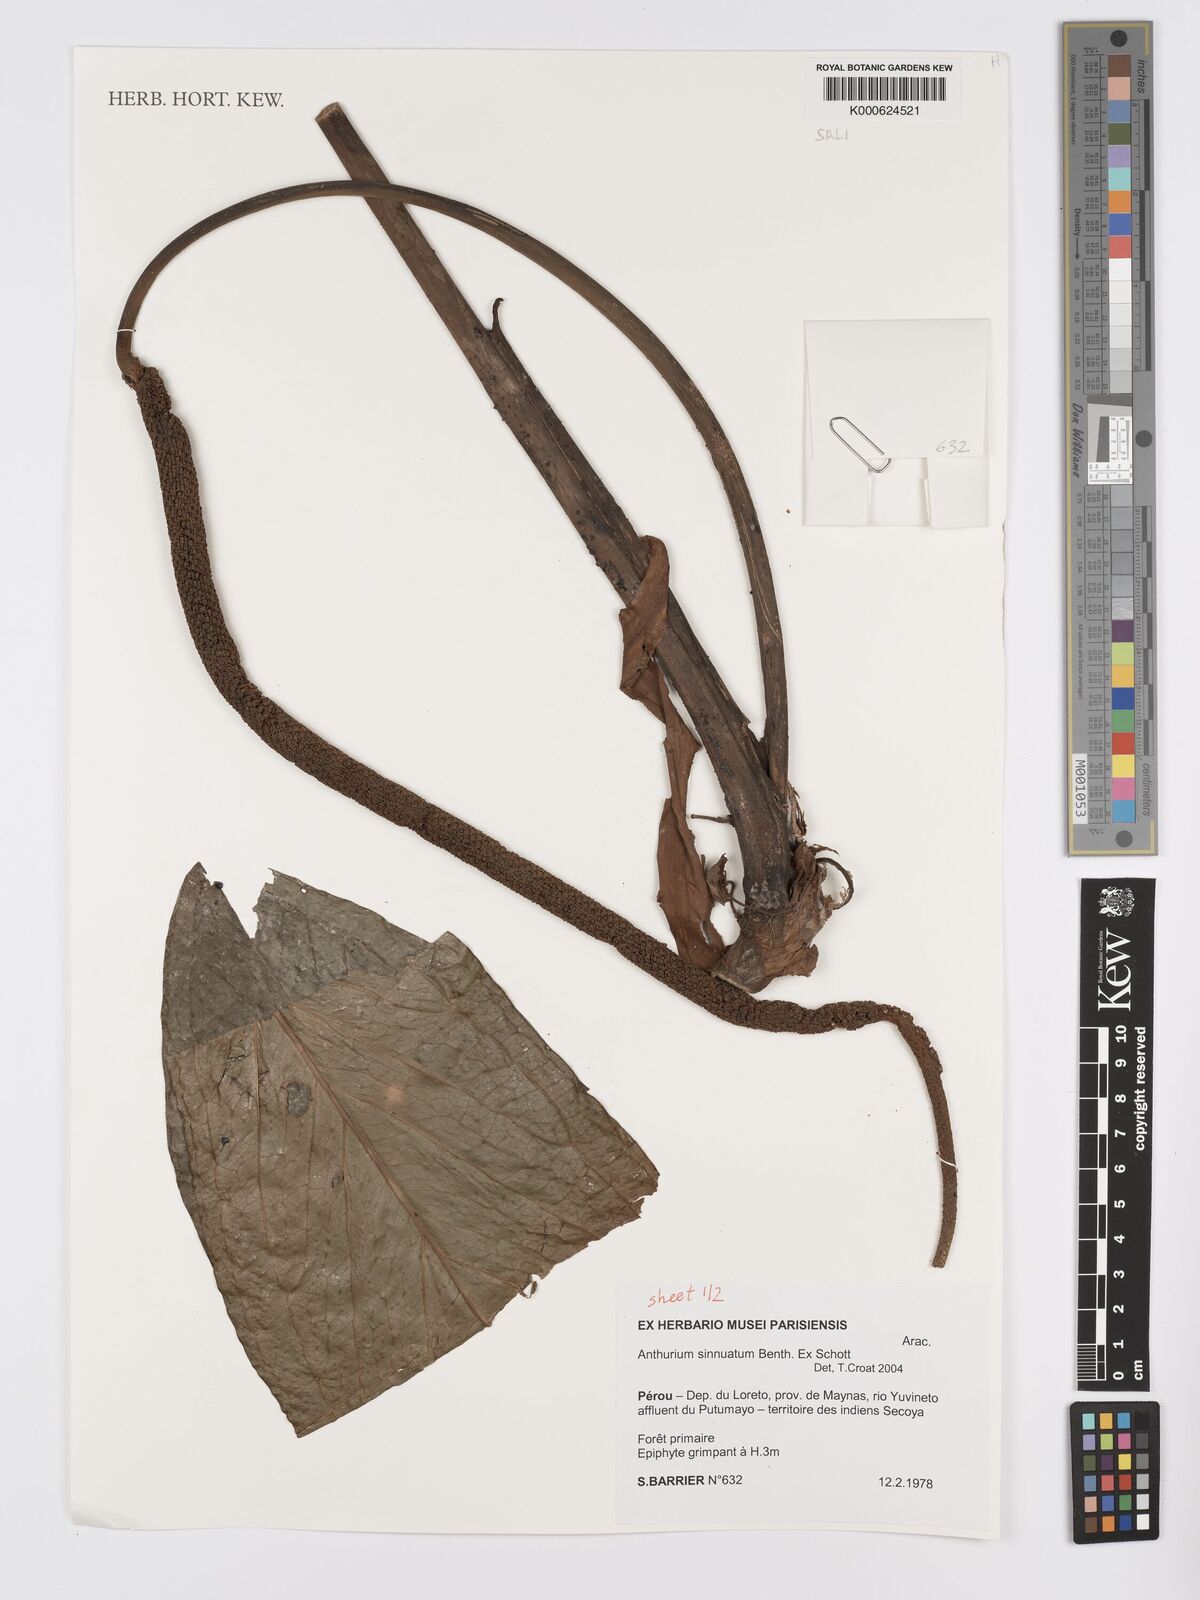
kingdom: Plantae
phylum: Tracheophyta
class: Liliopsida
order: Alismatales
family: Araceae
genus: Anthurium
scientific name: Anthurium sinuatum
